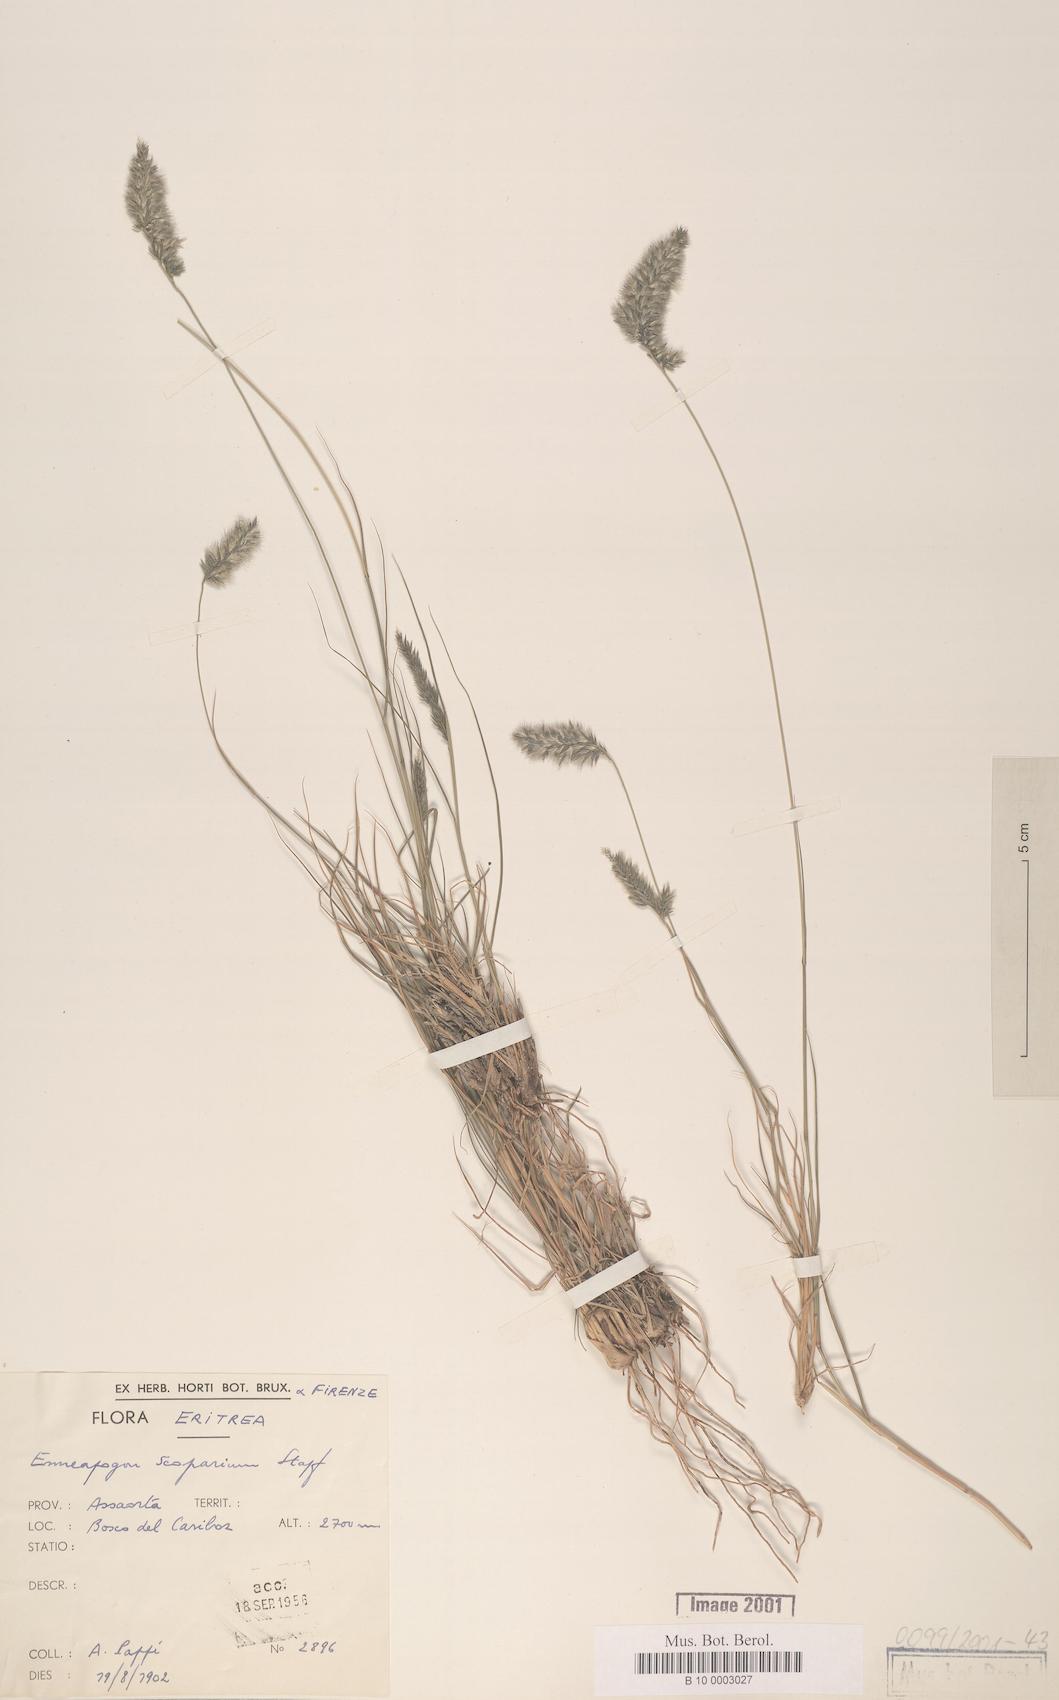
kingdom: Plantae
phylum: Tracheophyta
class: Liliopsida
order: Poales
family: Poaceae
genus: Enneapogon
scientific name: Enneapogon scoparius
